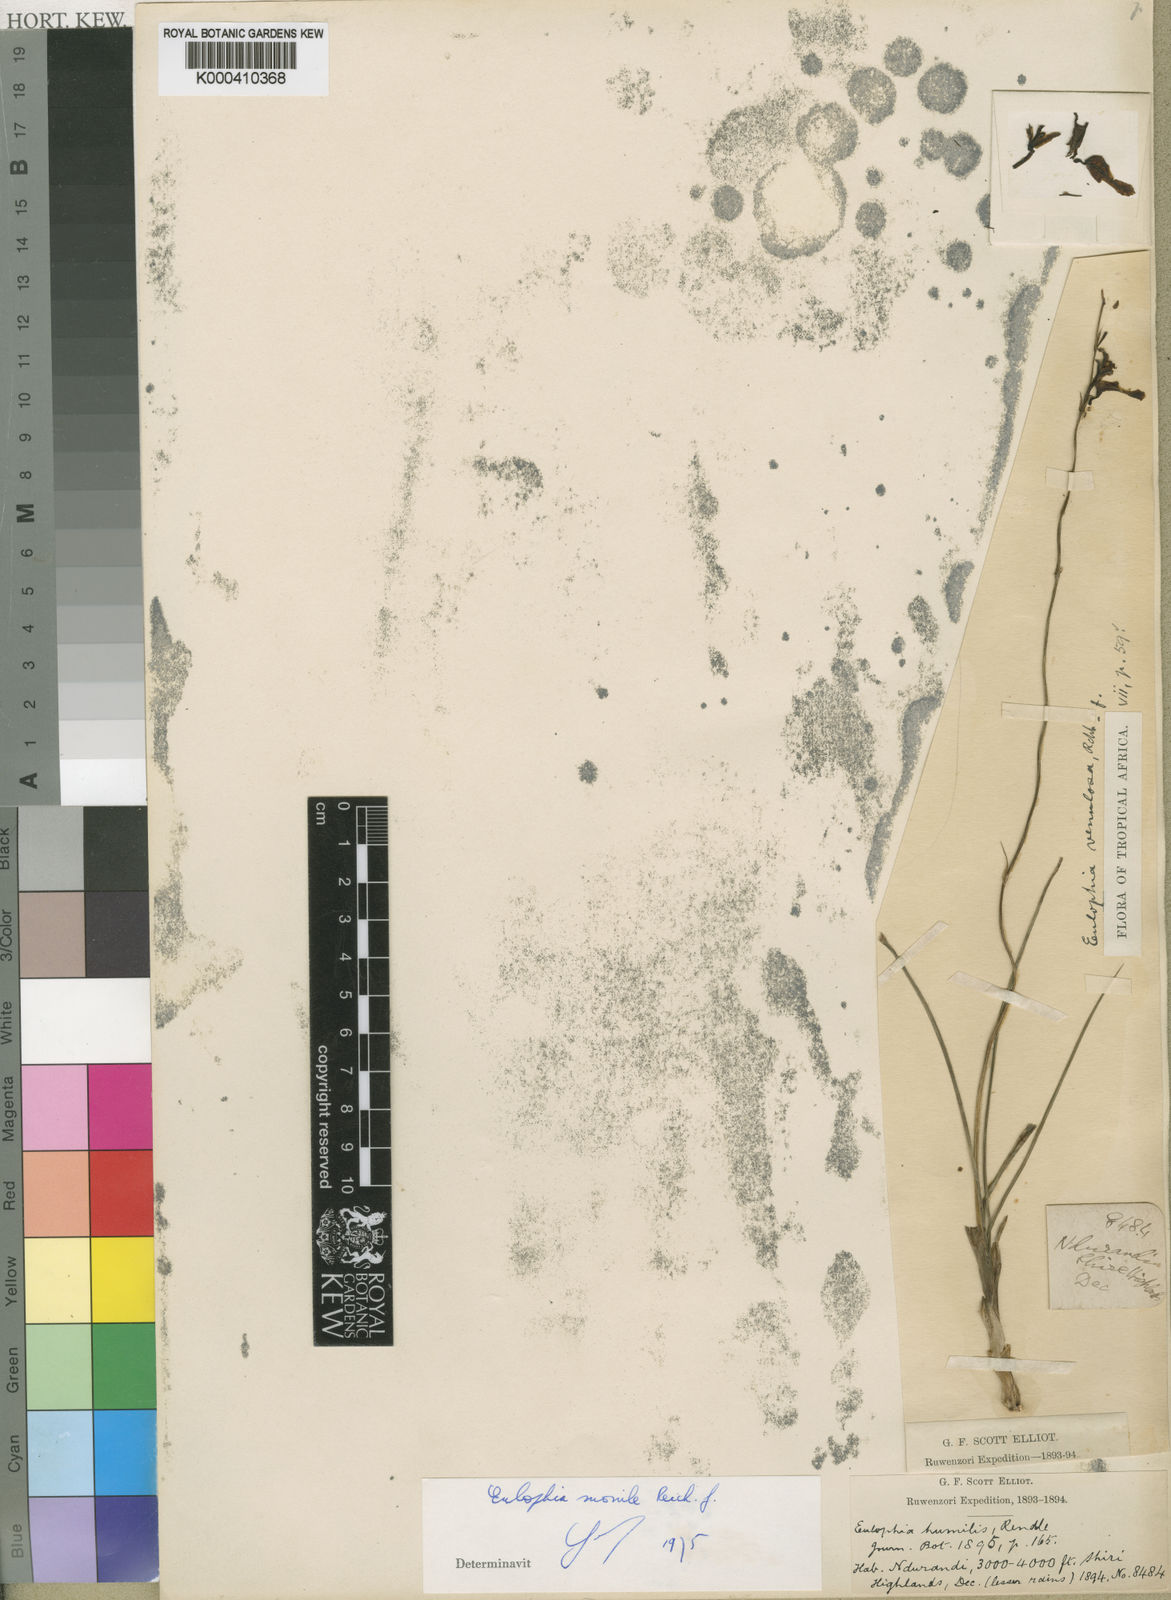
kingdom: Plantae
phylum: Tracheophyta
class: Liliopsida
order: Asparagales
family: Orchidaceae
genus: Eulophia
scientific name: Eulophia venulosa
